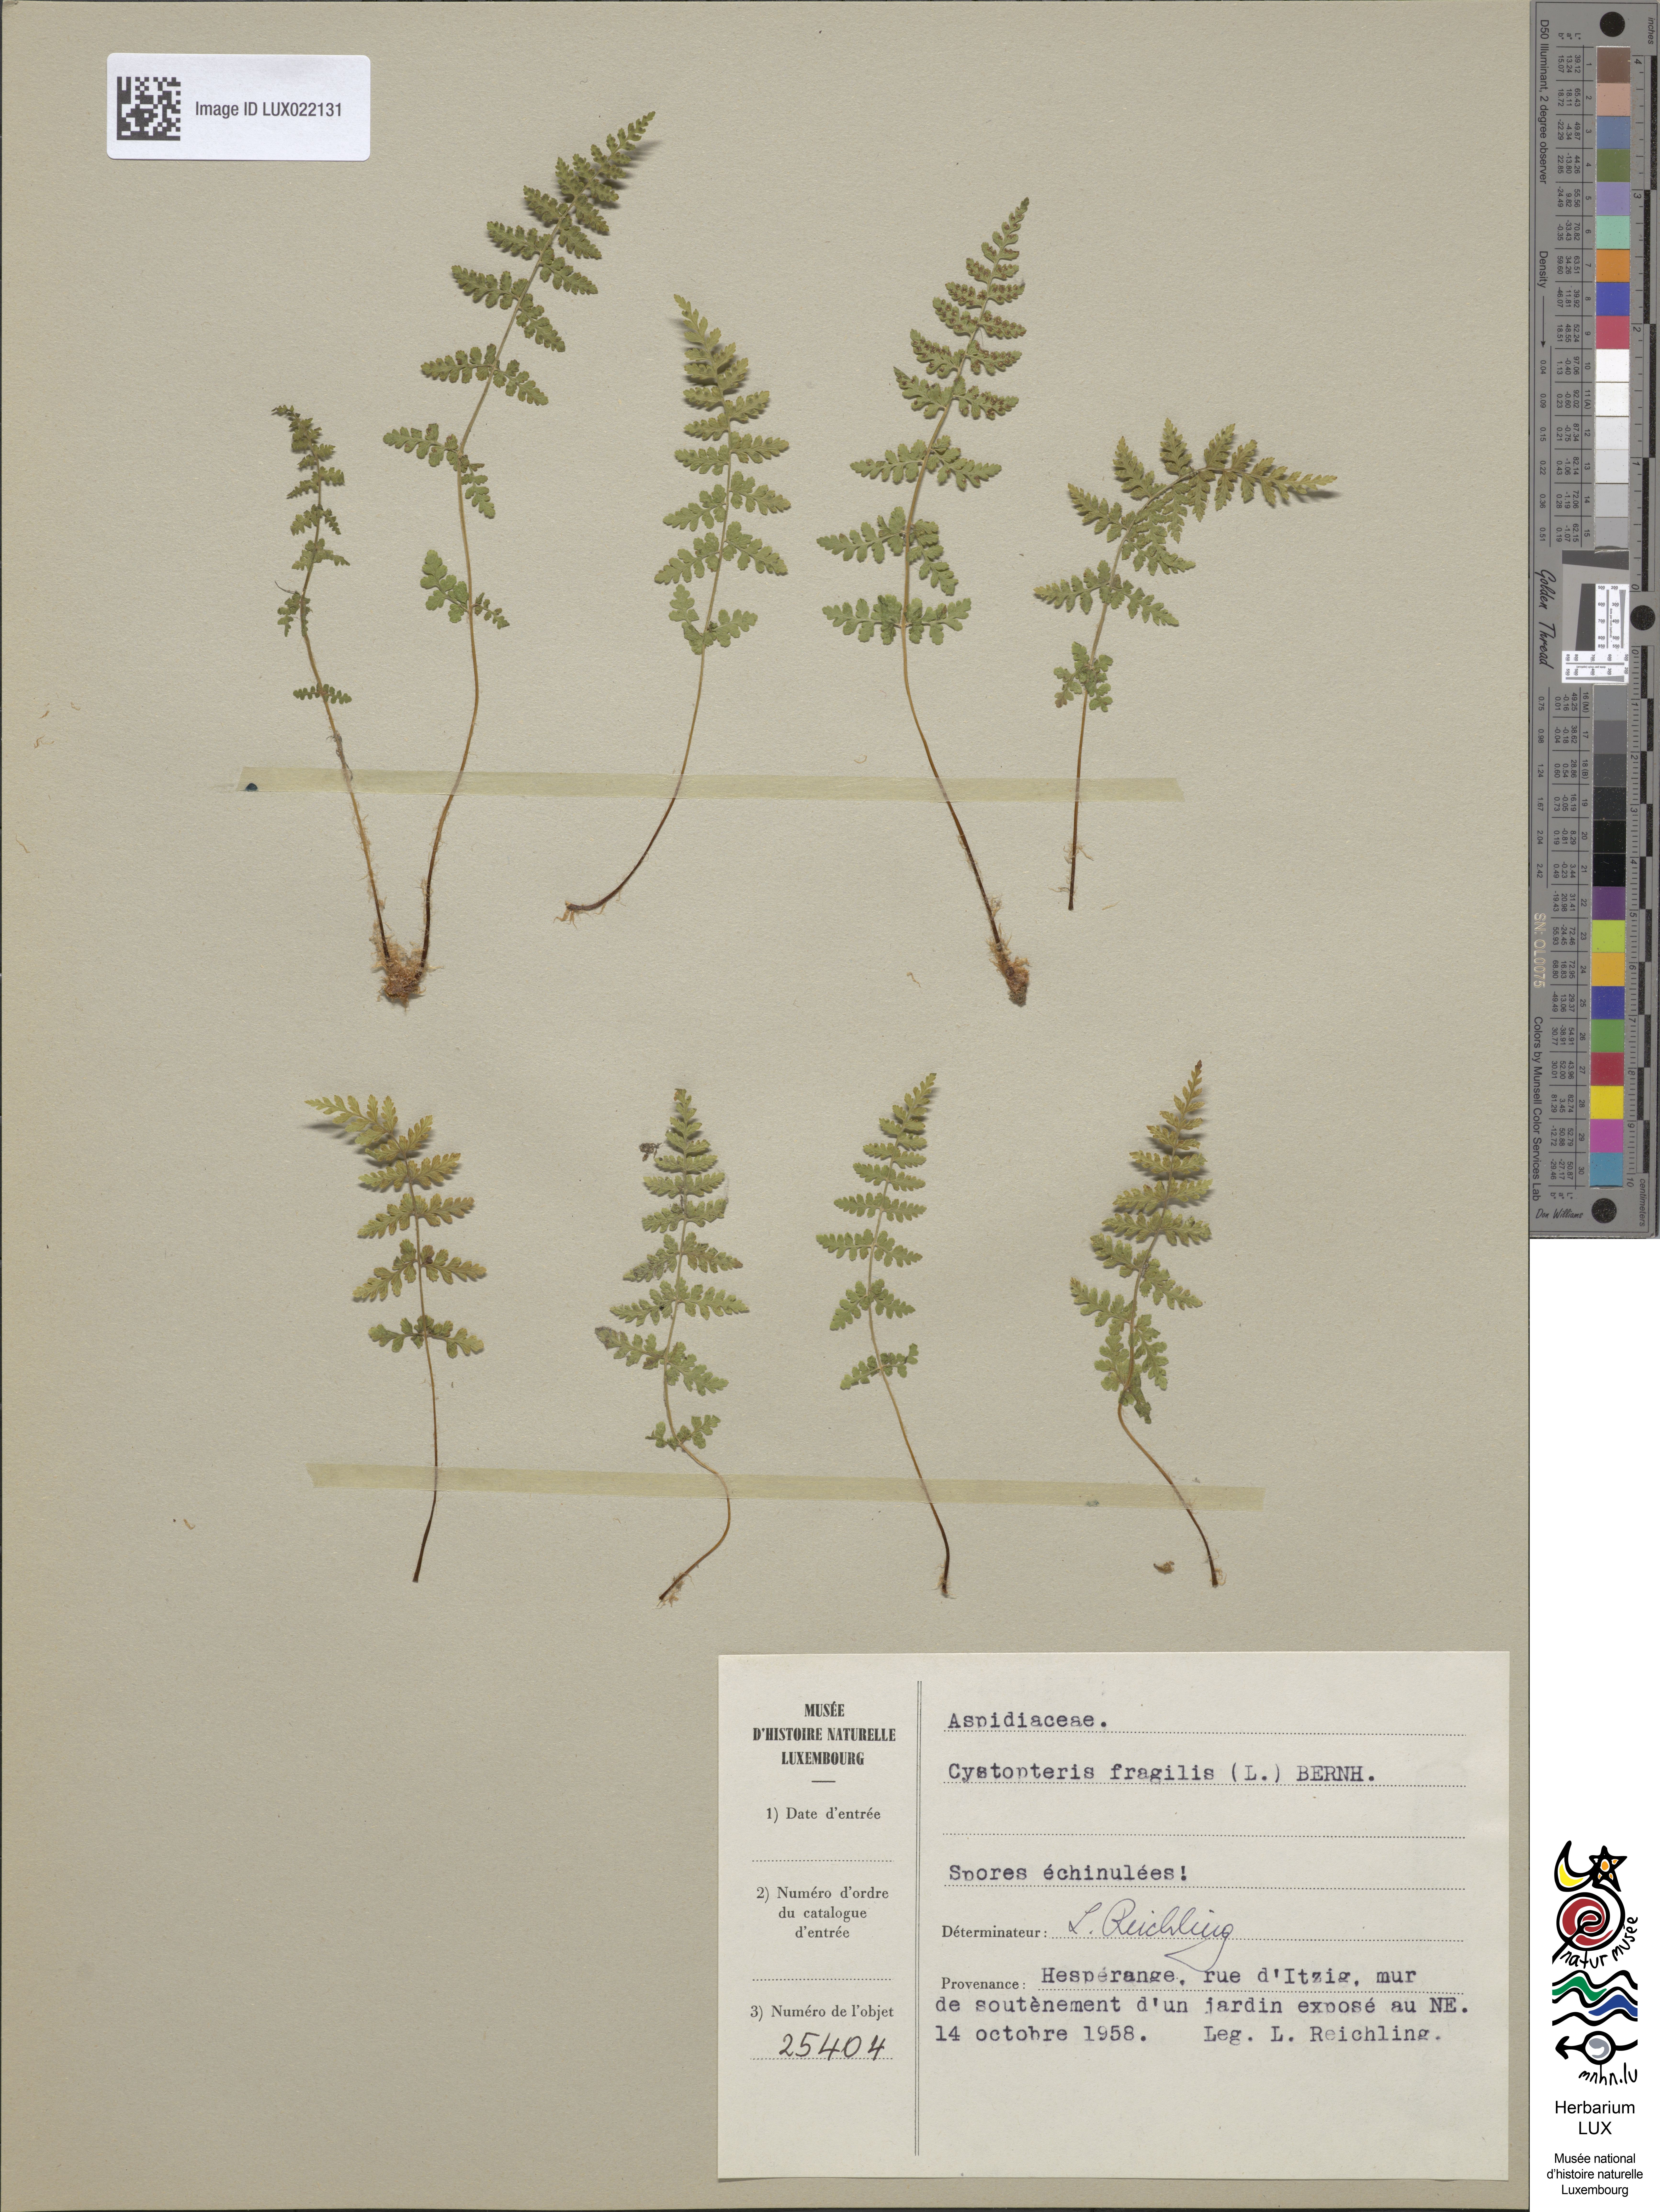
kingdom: Plantae
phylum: Tracheophyta
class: Polypodiopsida
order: Polypodiales
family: Cystopteridaceae
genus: Cystopteris
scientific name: Cystopteris fragilis
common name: Brittle bladder fern
